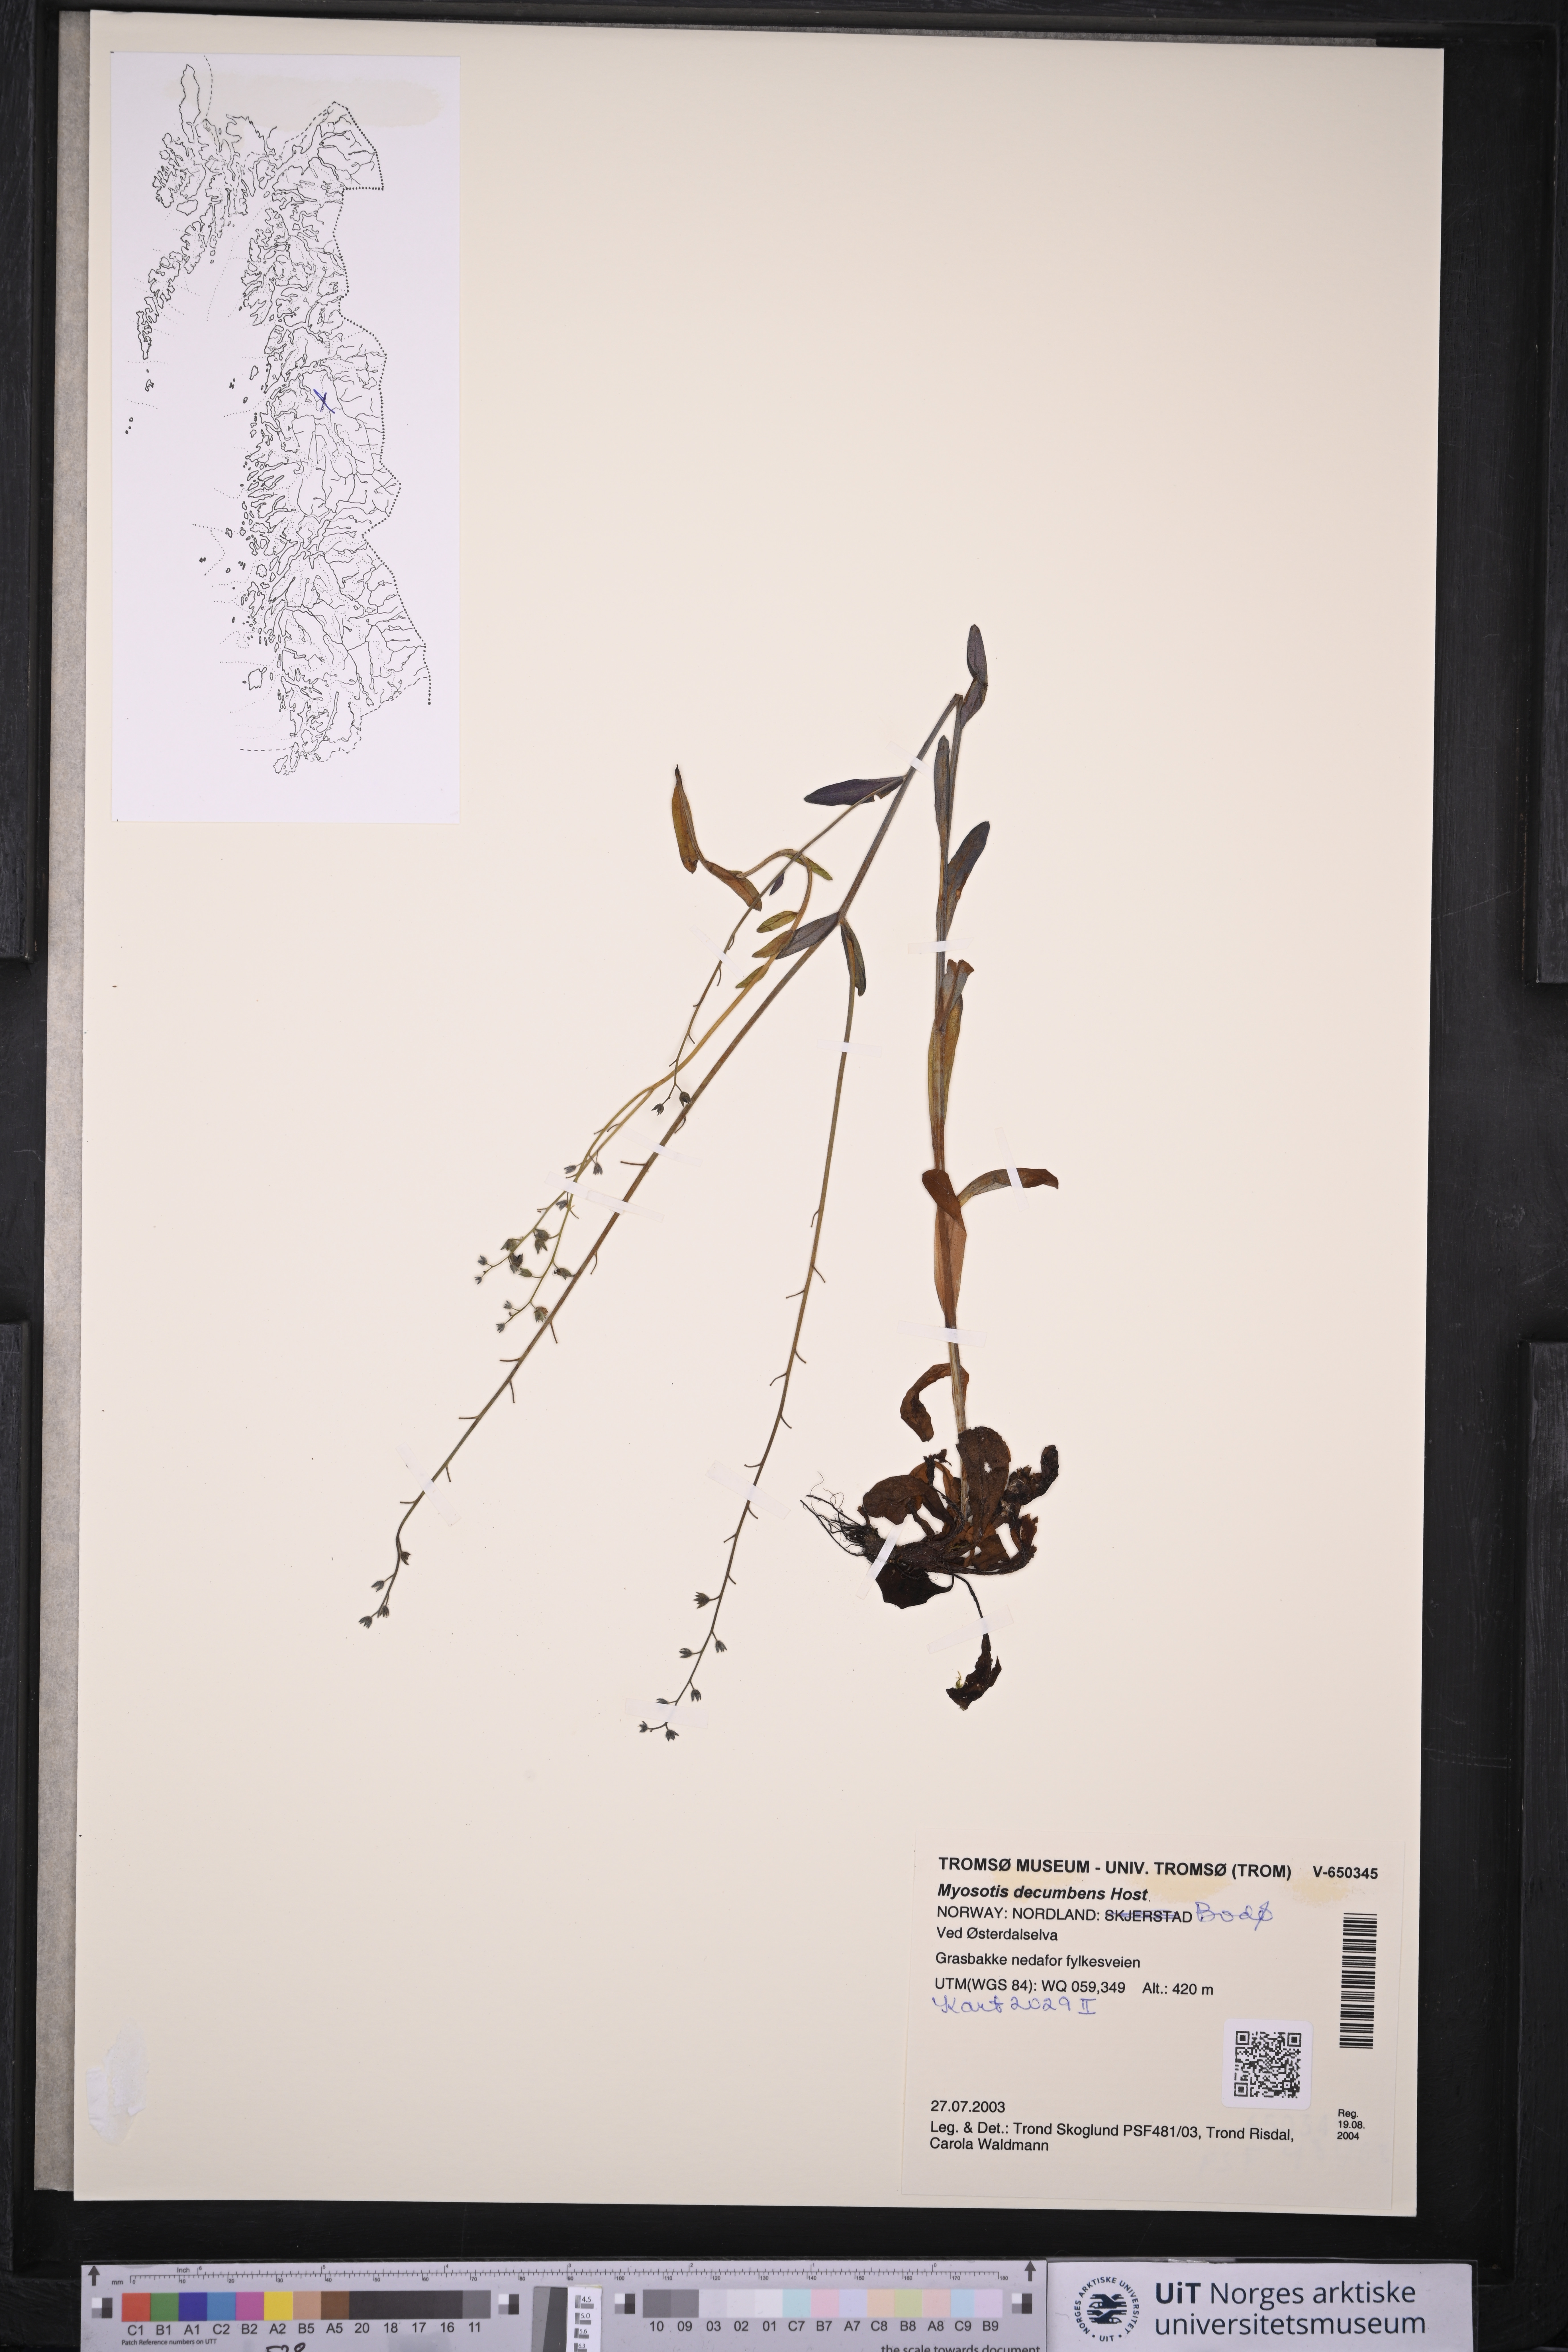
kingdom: Plantae
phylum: Tracheophyta
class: Magnoliopsida
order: Boraginales
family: Boraginaceae
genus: Myosotis
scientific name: Myosotis decumbens
